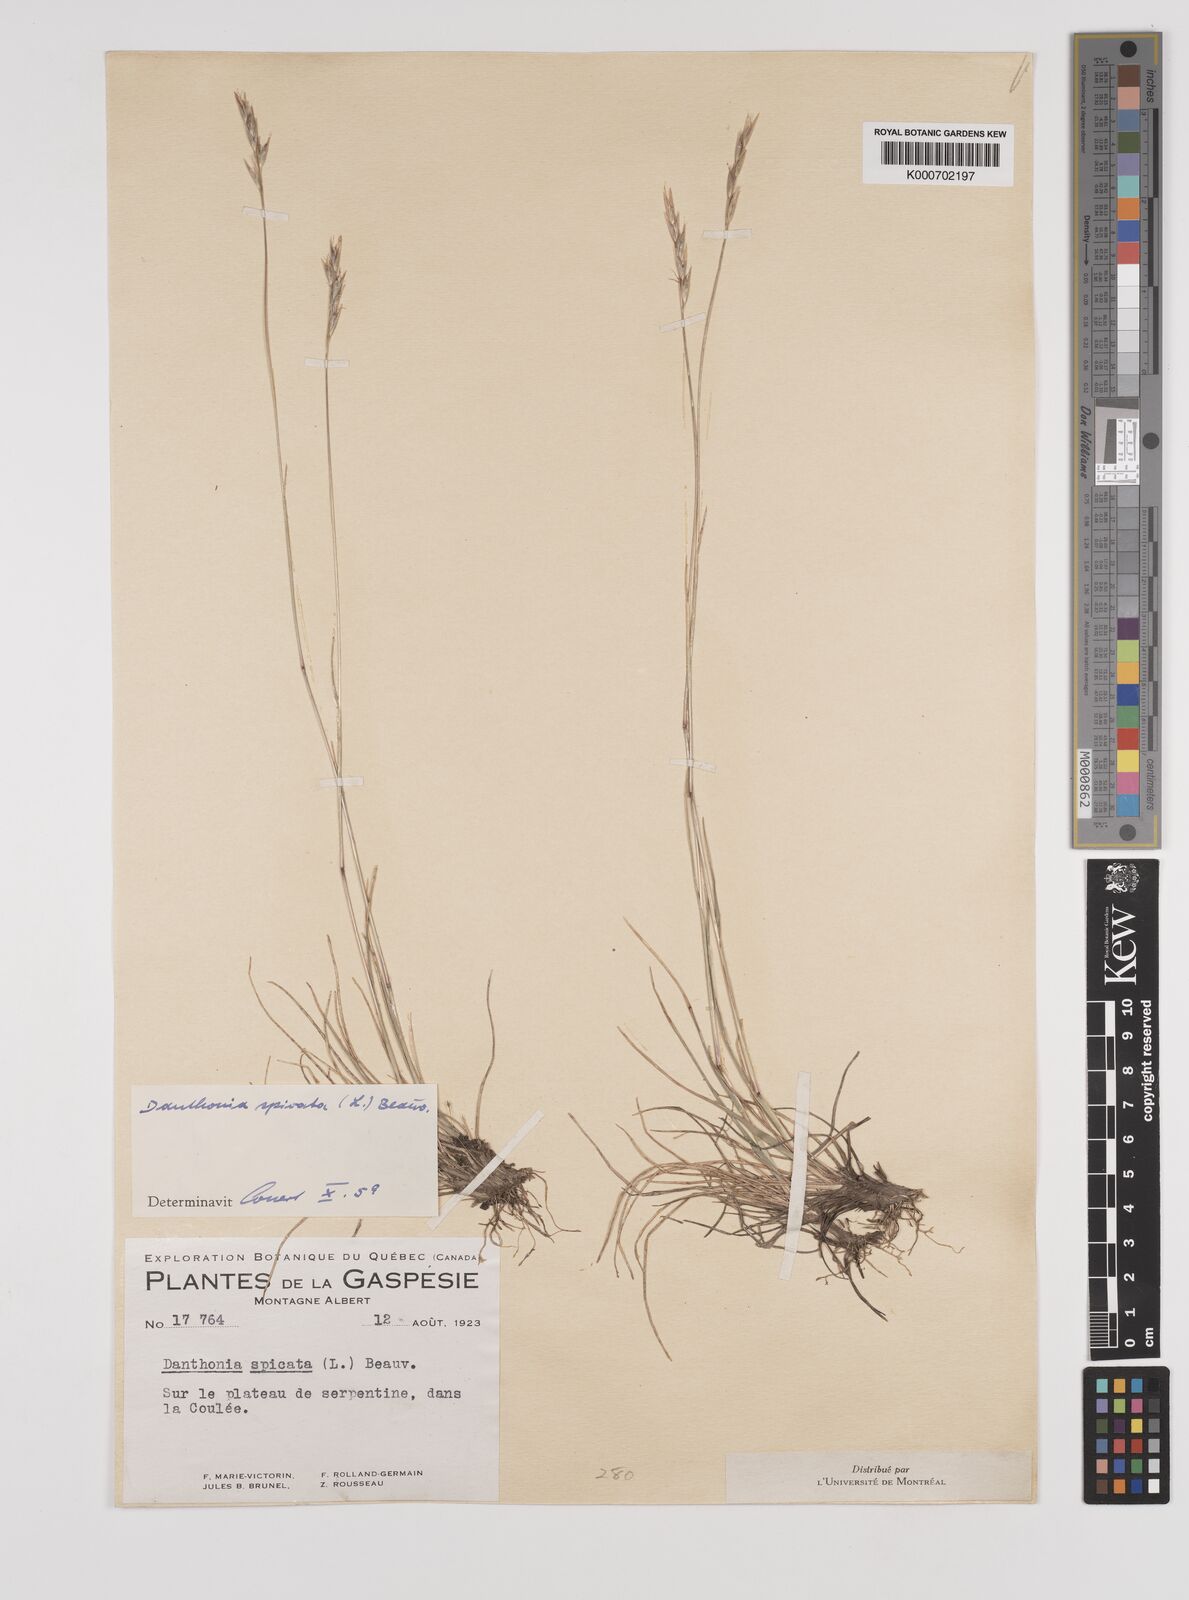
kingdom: Plantae
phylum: Tracheophyta
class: Liliopsida
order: Poales
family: Poaceae
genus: Danthonia
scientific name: Danthonia spicata
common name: Common wild oatgrass
